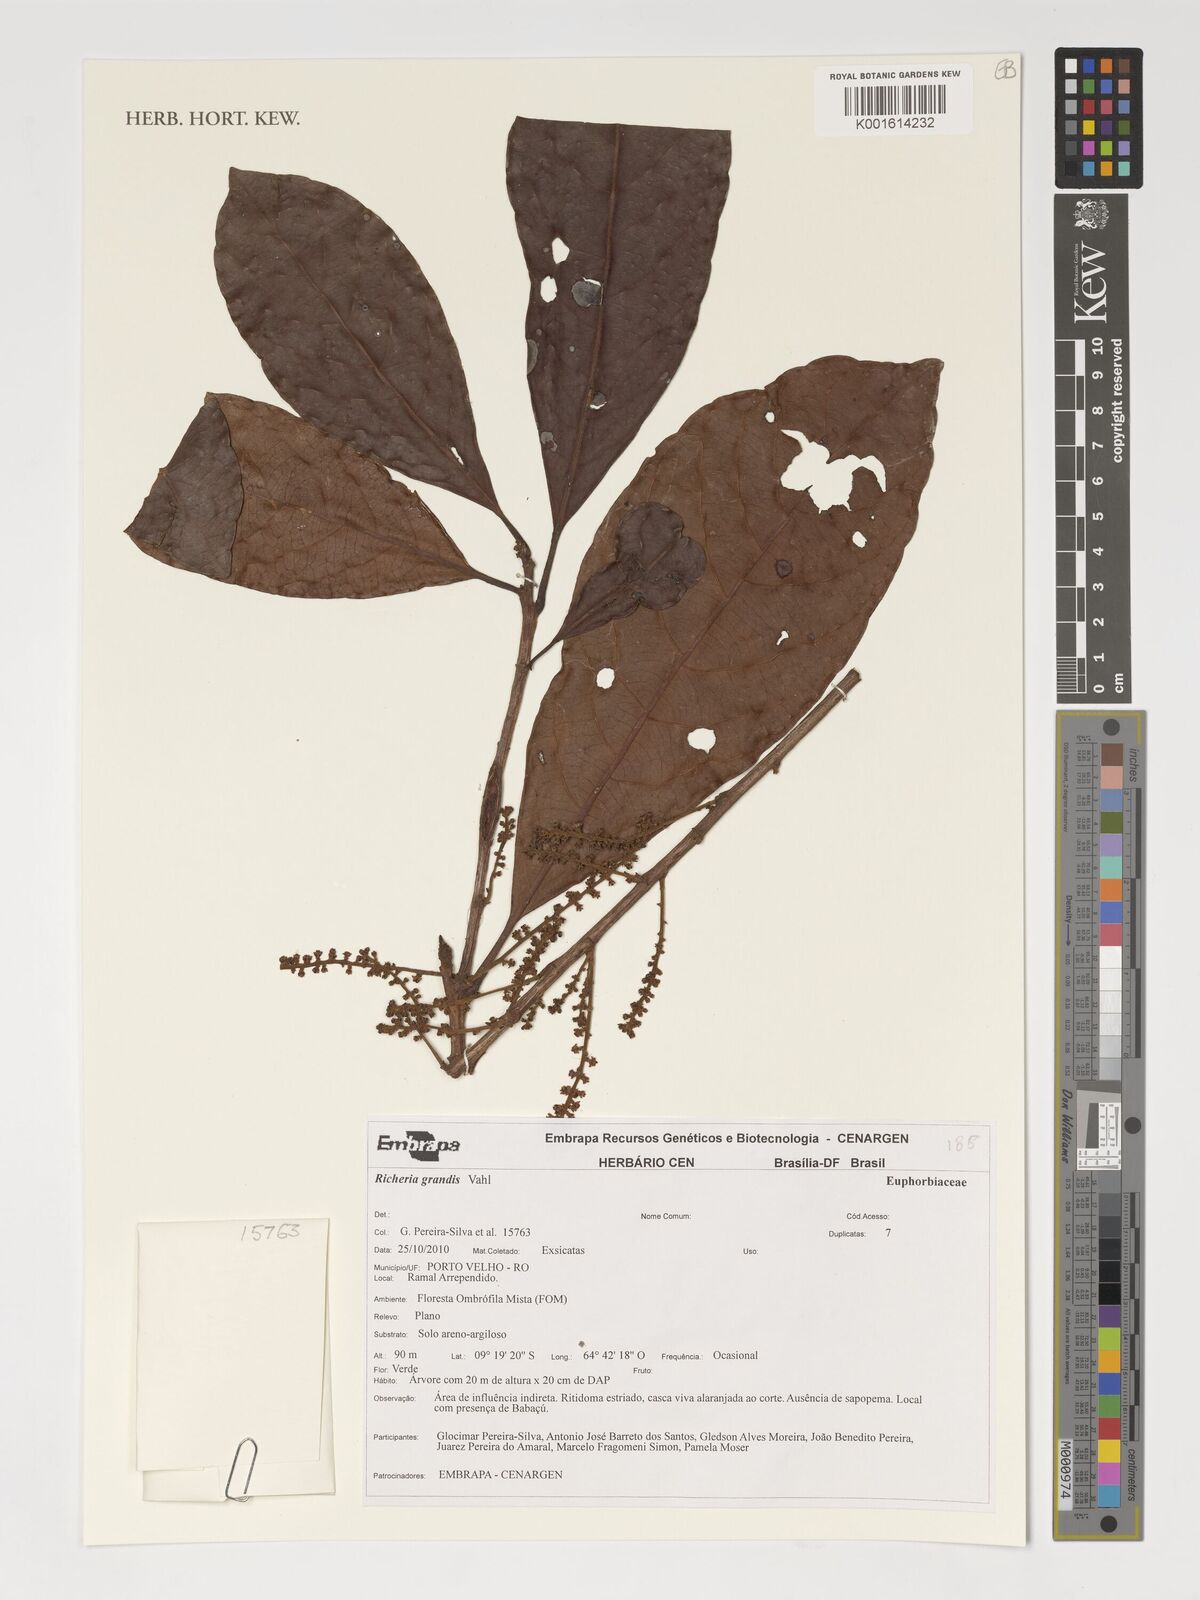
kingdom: Plantae
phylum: Tracheophyta
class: Magnoliopsida
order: Malpighiales
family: Phyllanthaceae
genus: Richeria
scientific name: Richeria grandis
